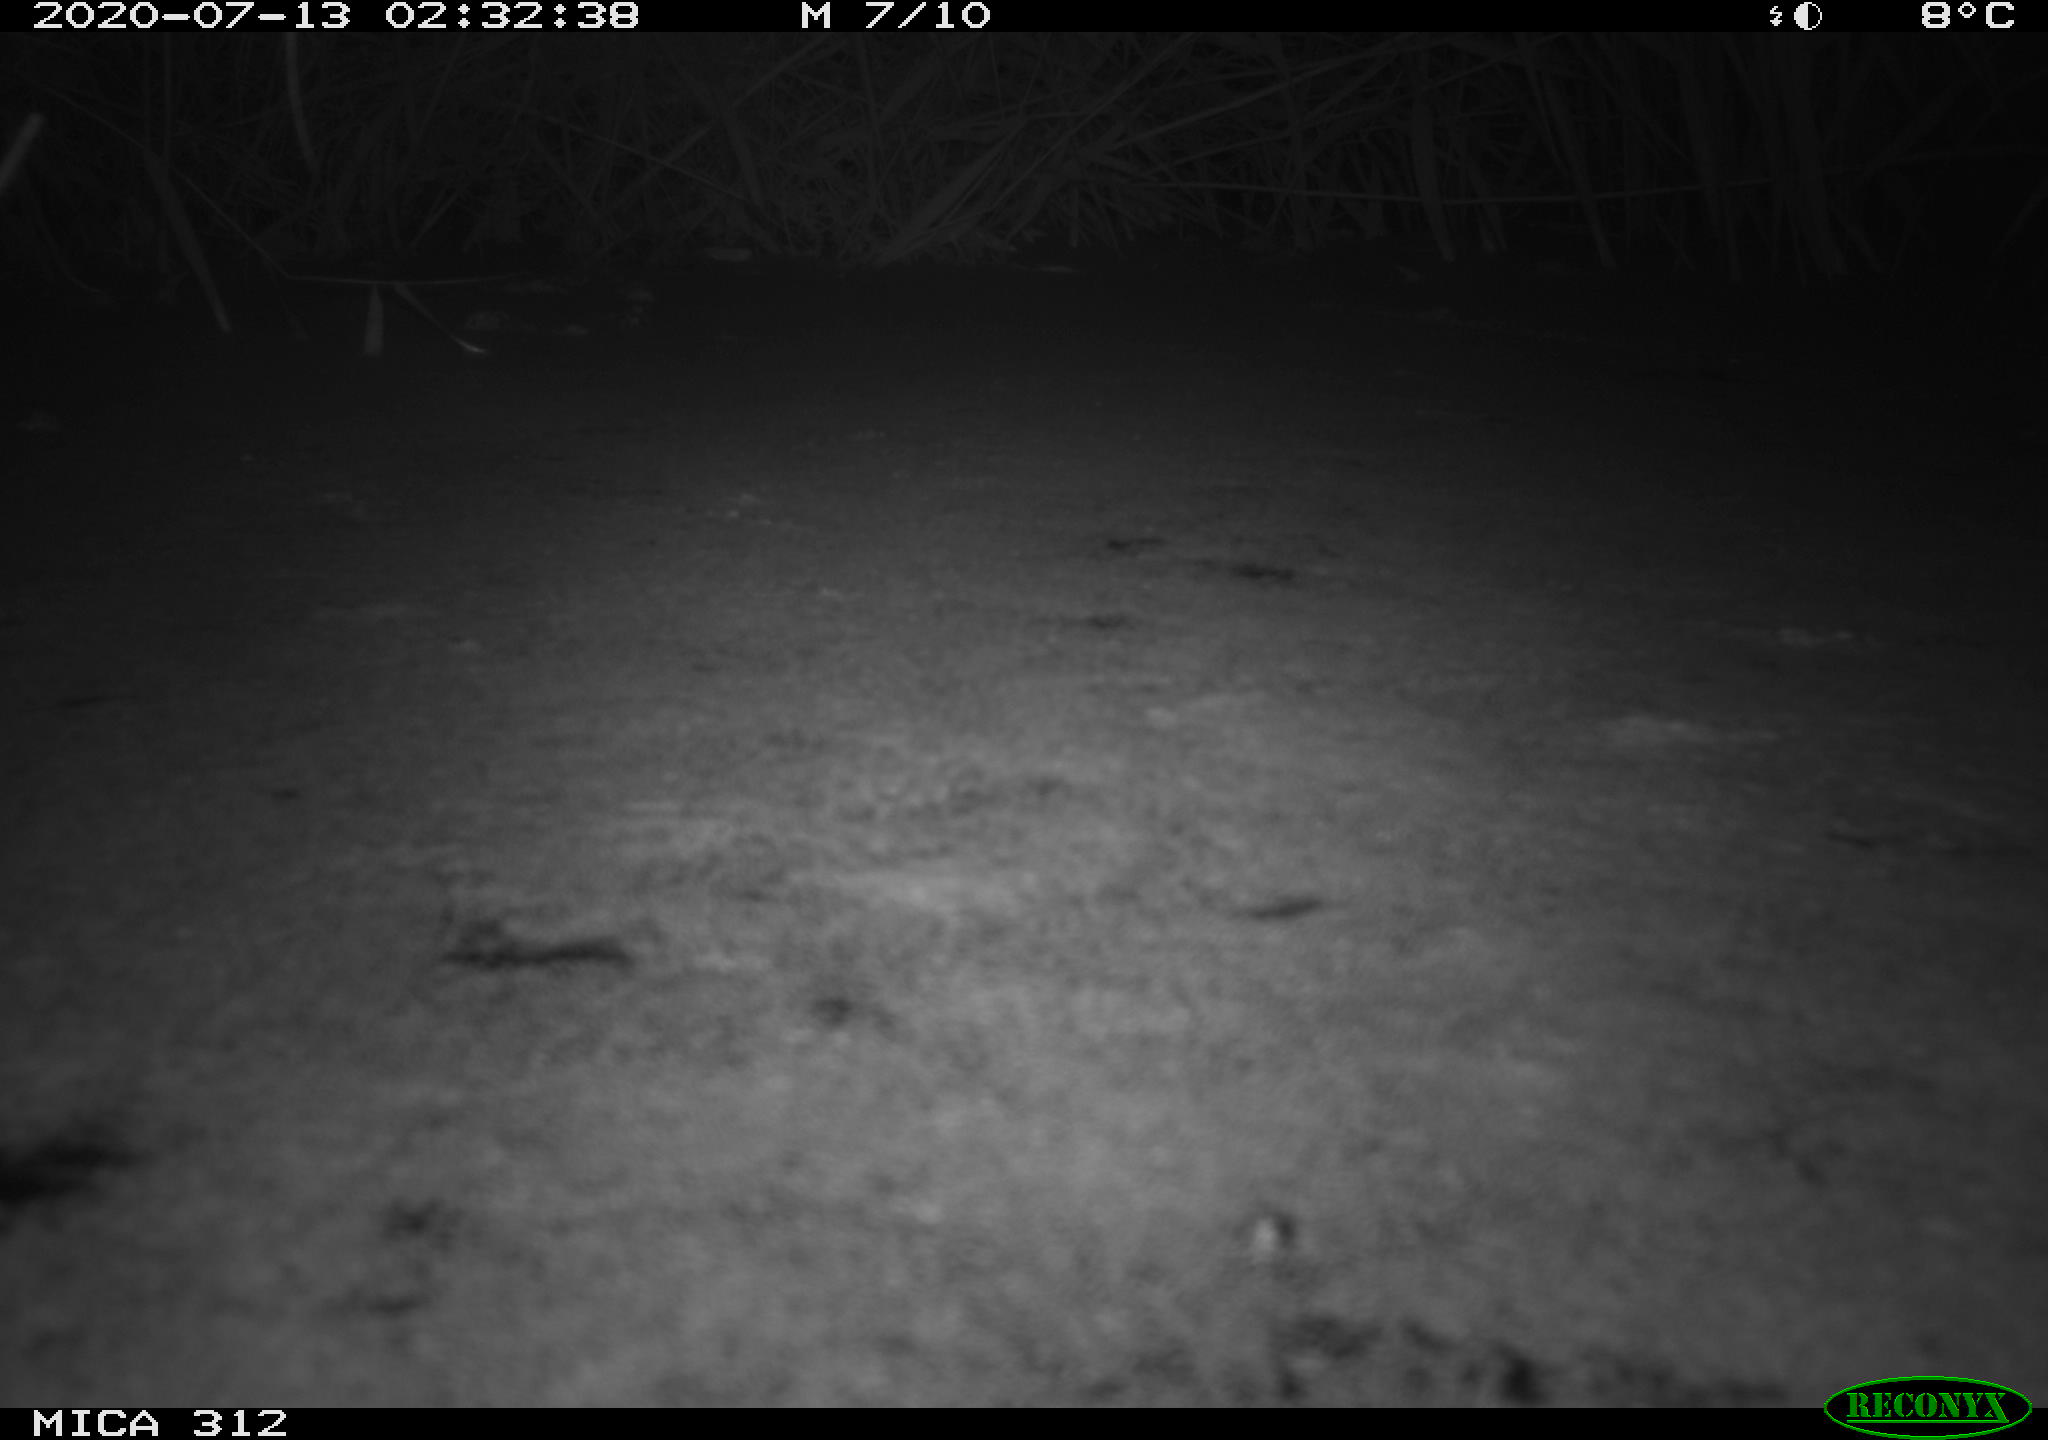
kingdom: Animalia
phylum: Chordata
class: Mammalia
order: Rodentia
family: Muridae
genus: Rattus
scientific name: Rattus norvegicus
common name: Brown rat
